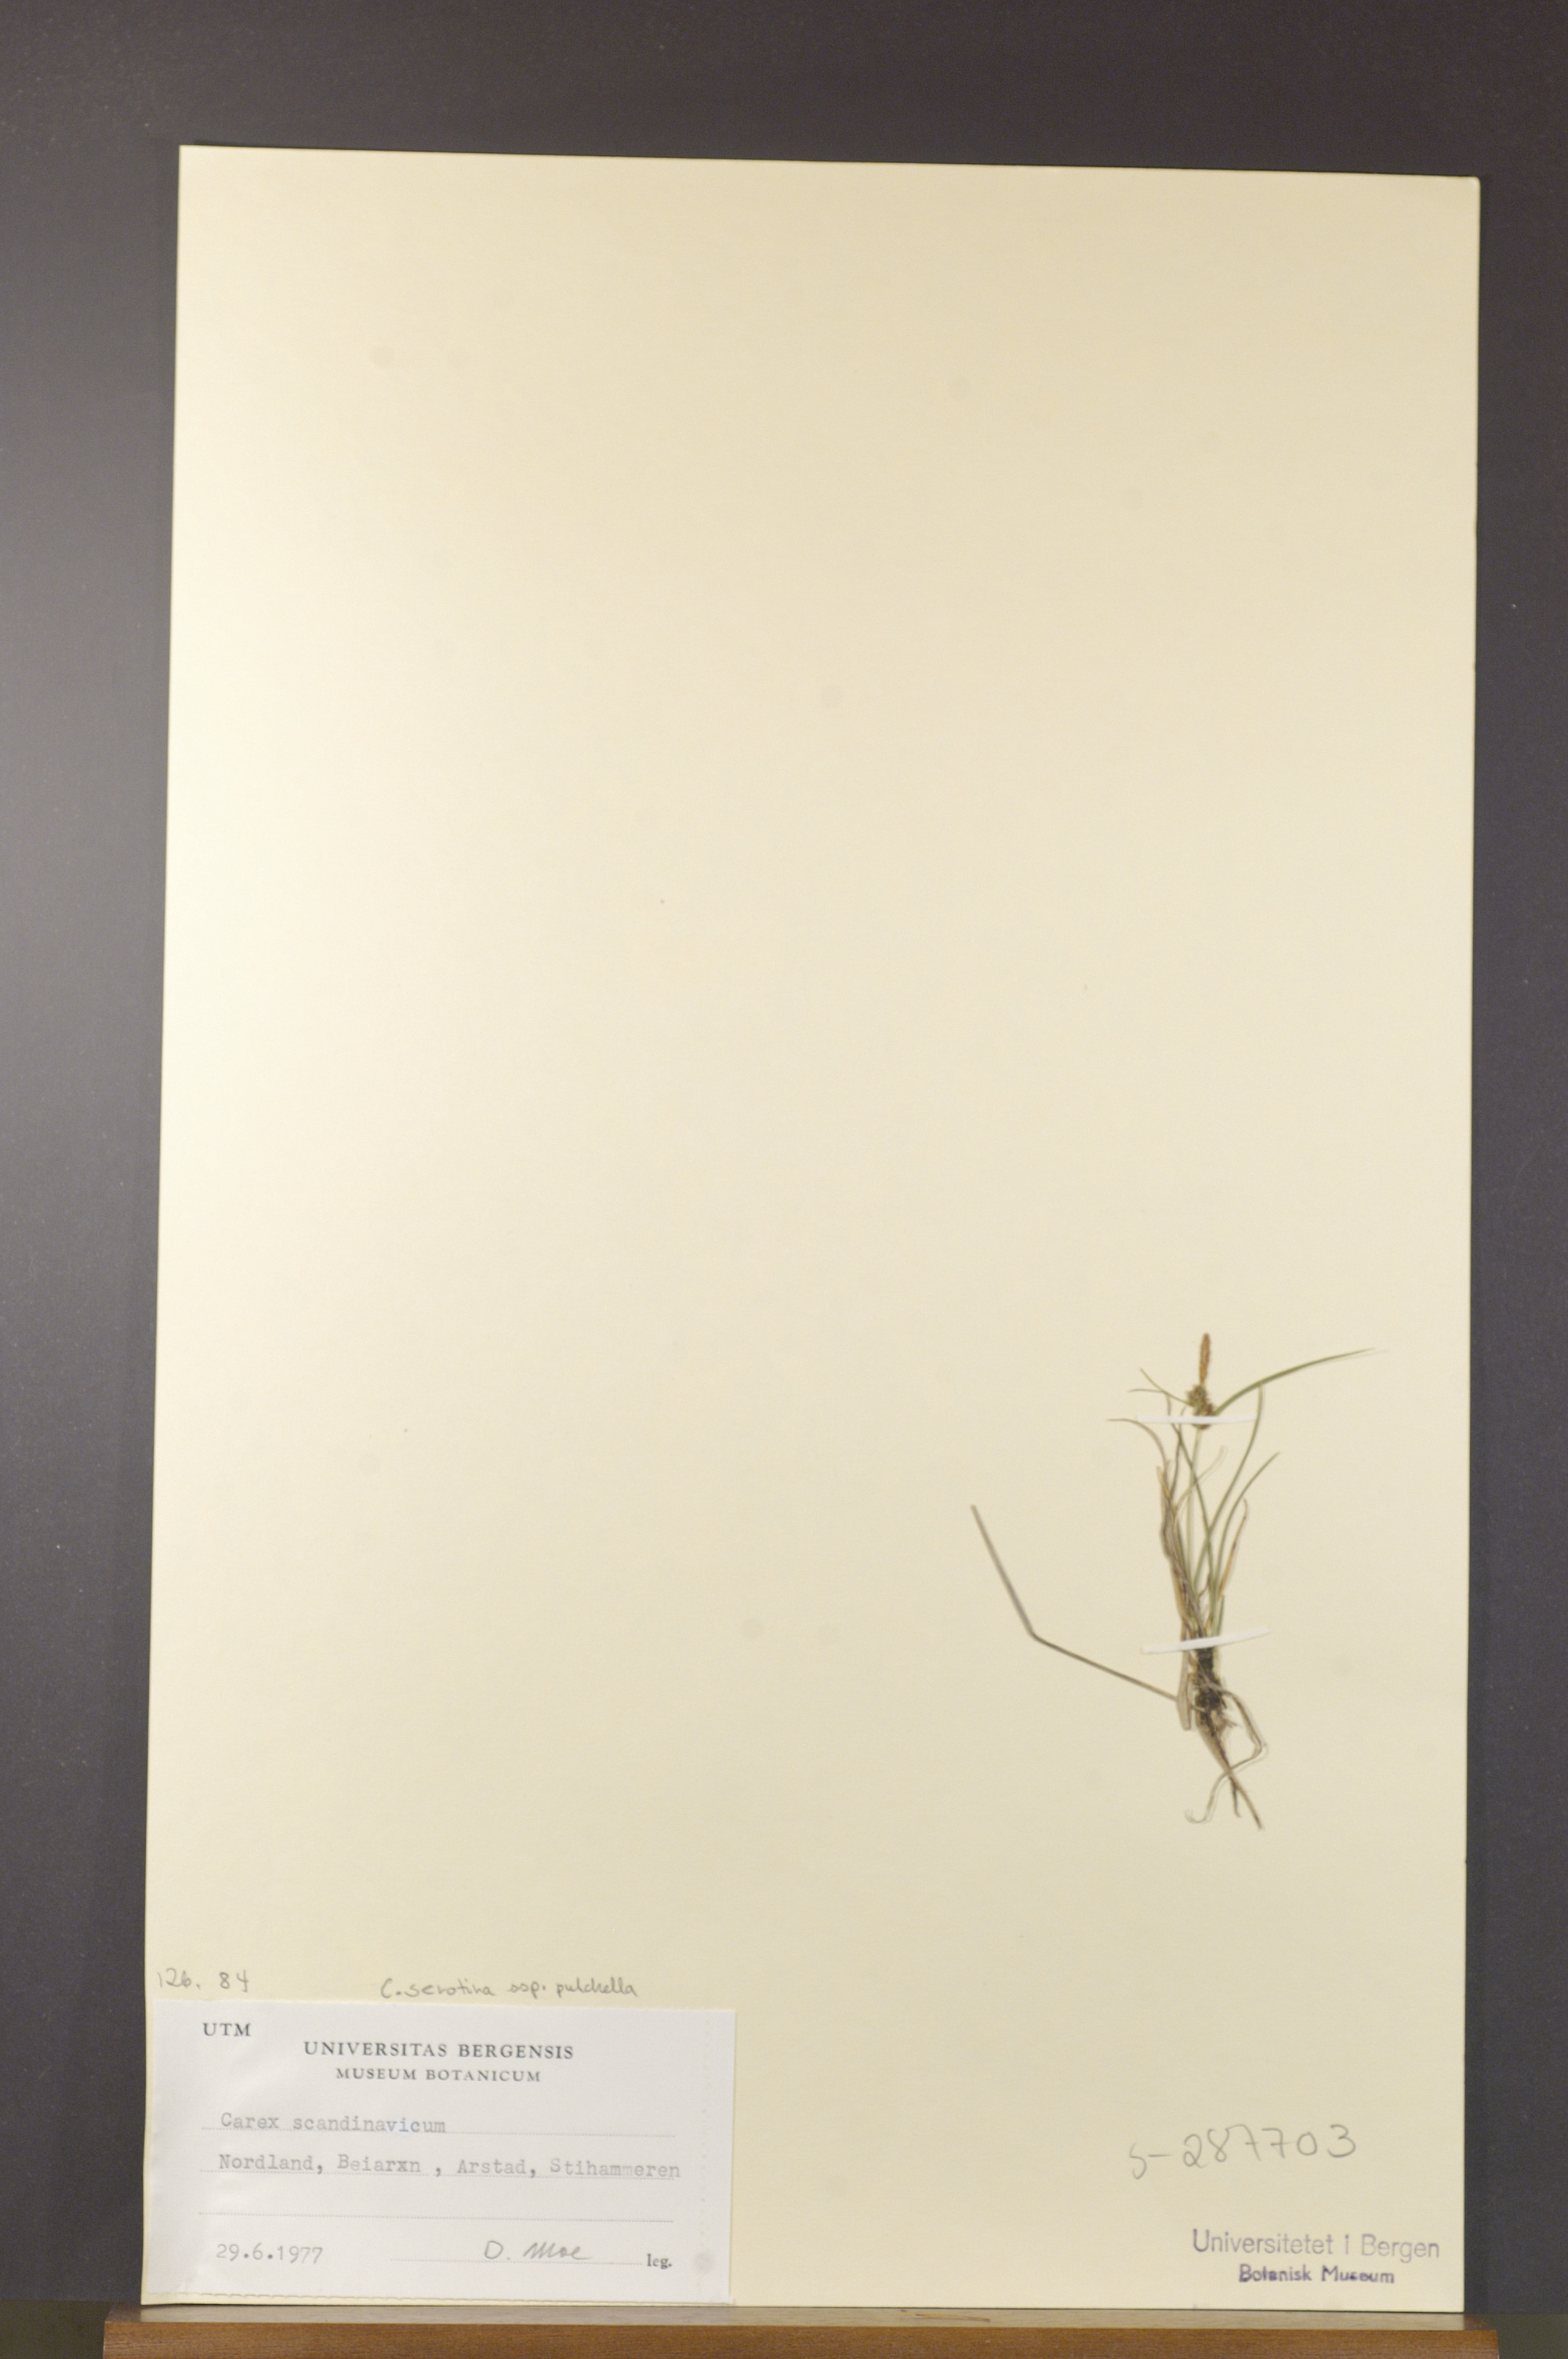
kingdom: Plantae
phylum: Tracheophyta
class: Liliopsida
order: Poales
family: Cyperaceae
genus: Carex
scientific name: Carex oederi
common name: Common & small-fruited yellow-sedge
